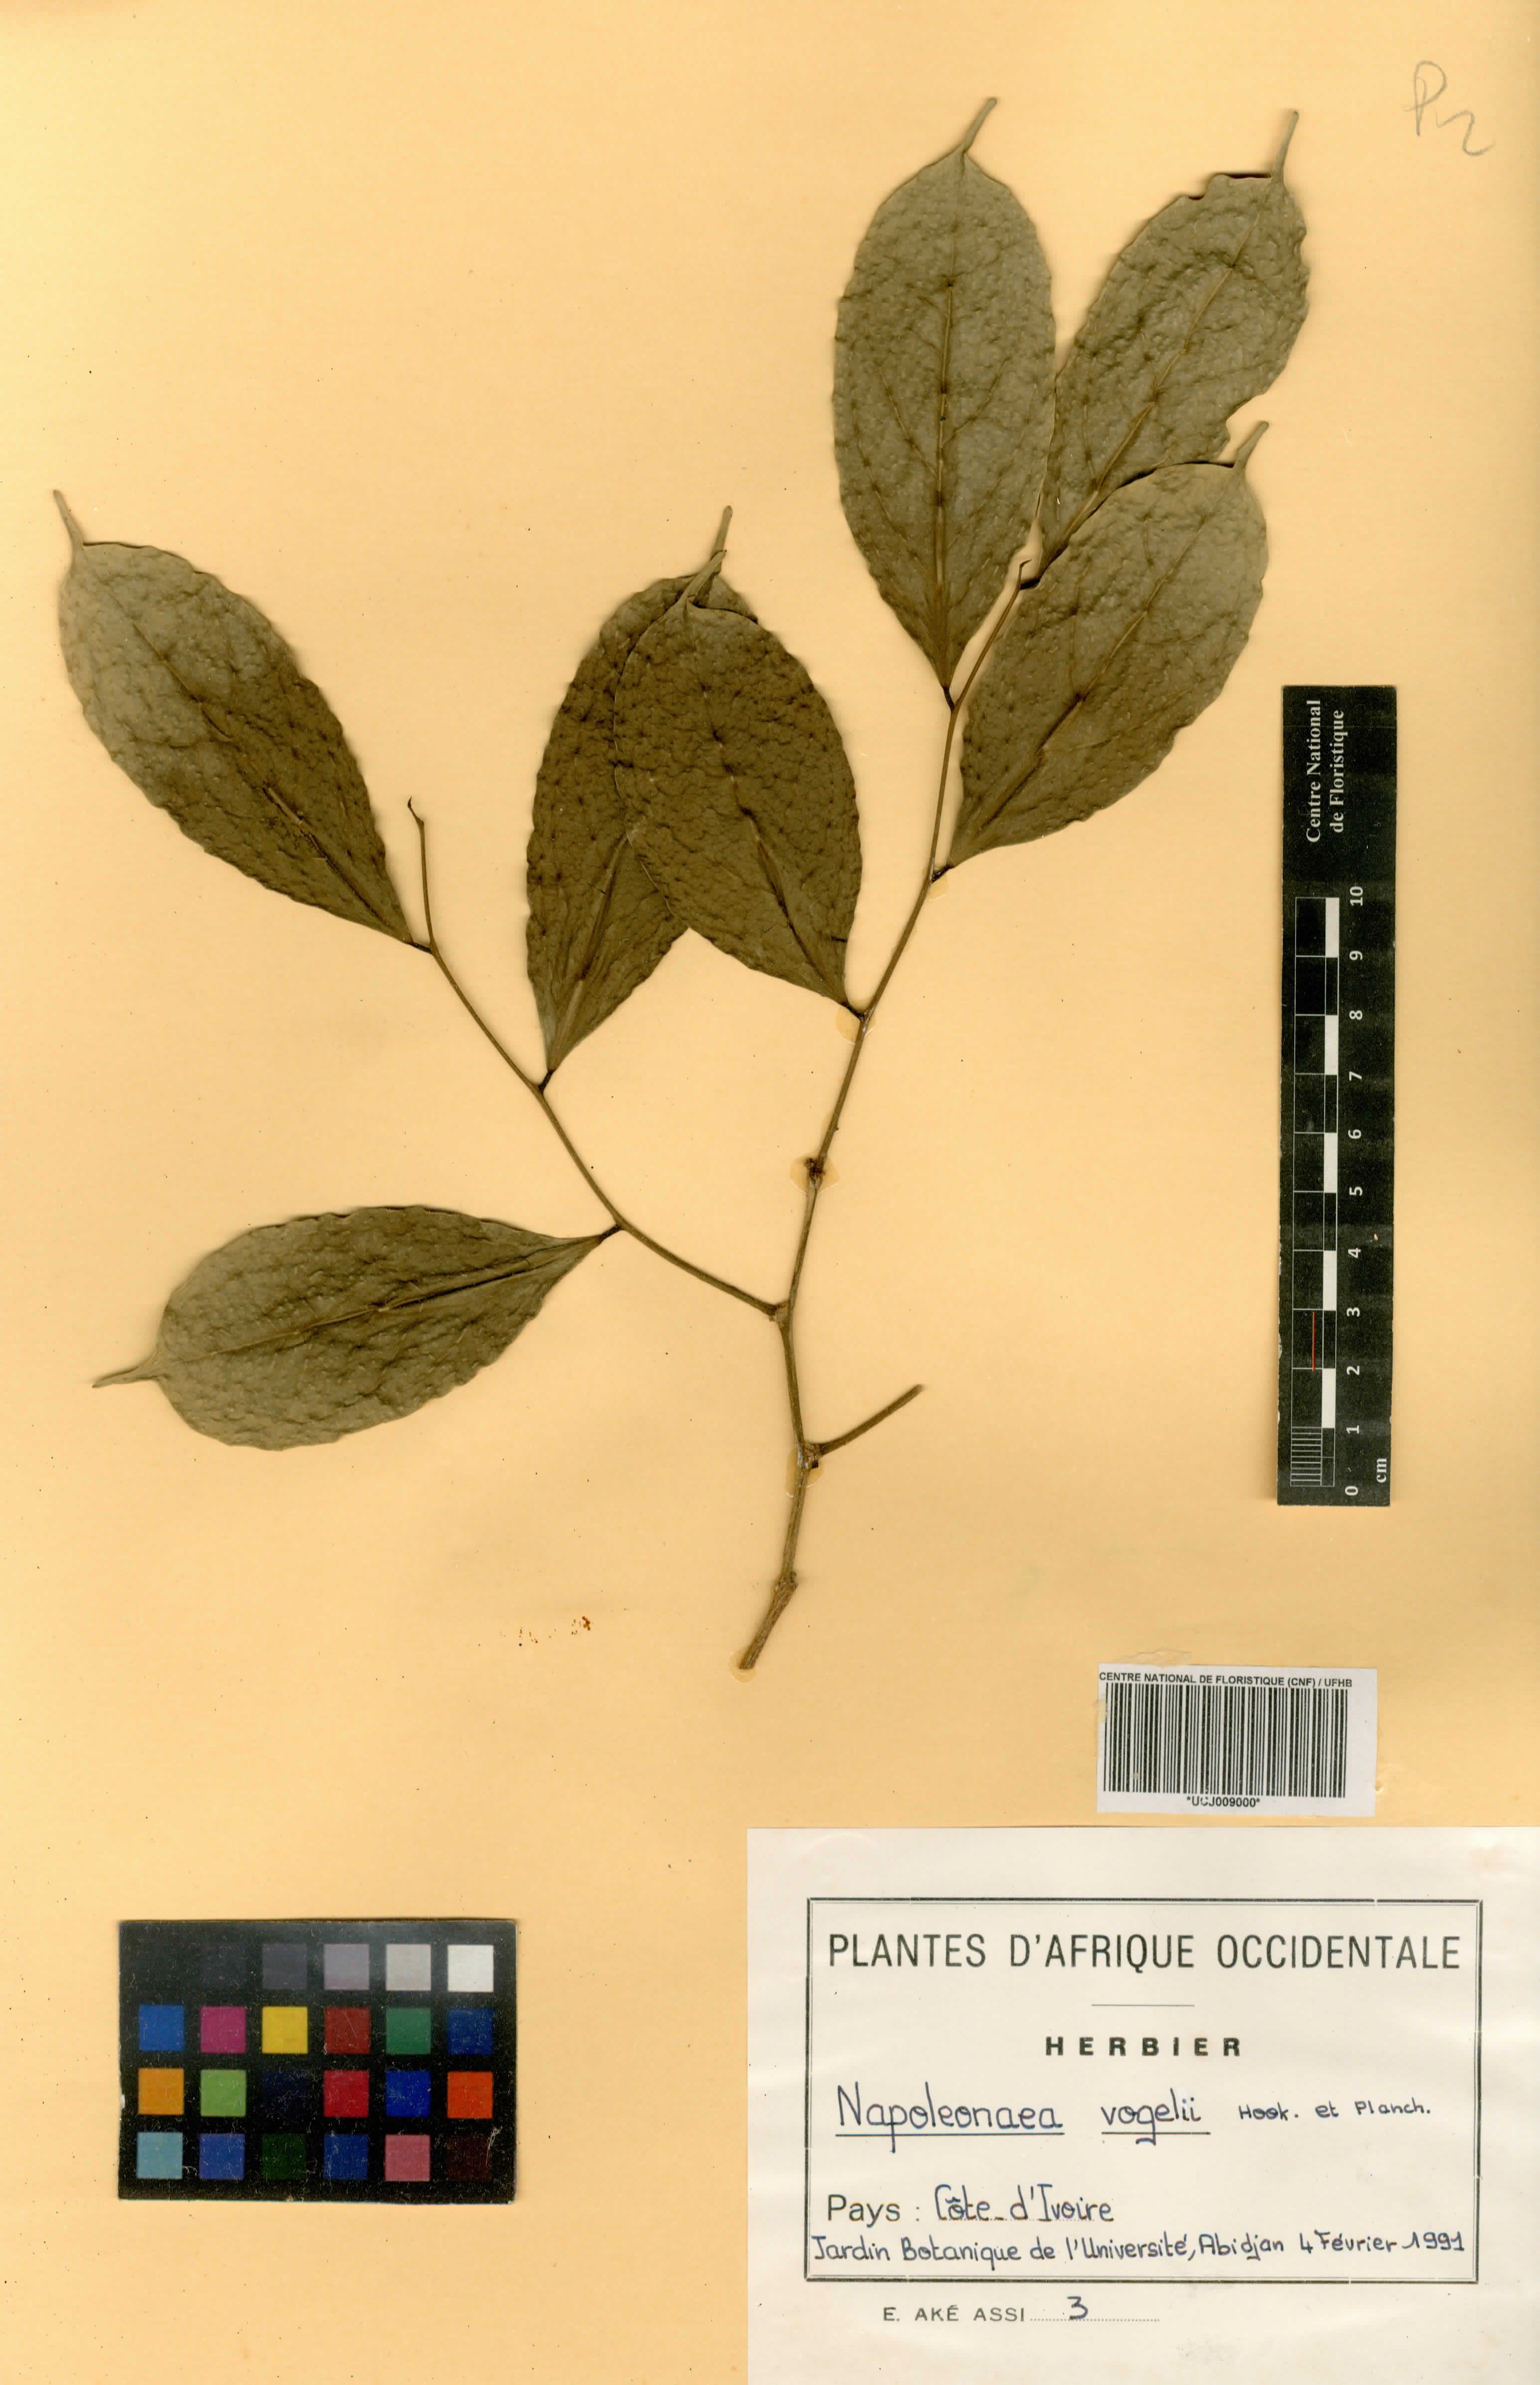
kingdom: Plantae
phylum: Tracheophyta
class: Magnoliopsida
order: Ericales
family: Lecythidaceae
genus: Napoleonaea
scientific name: Napoleonaea vogelii
